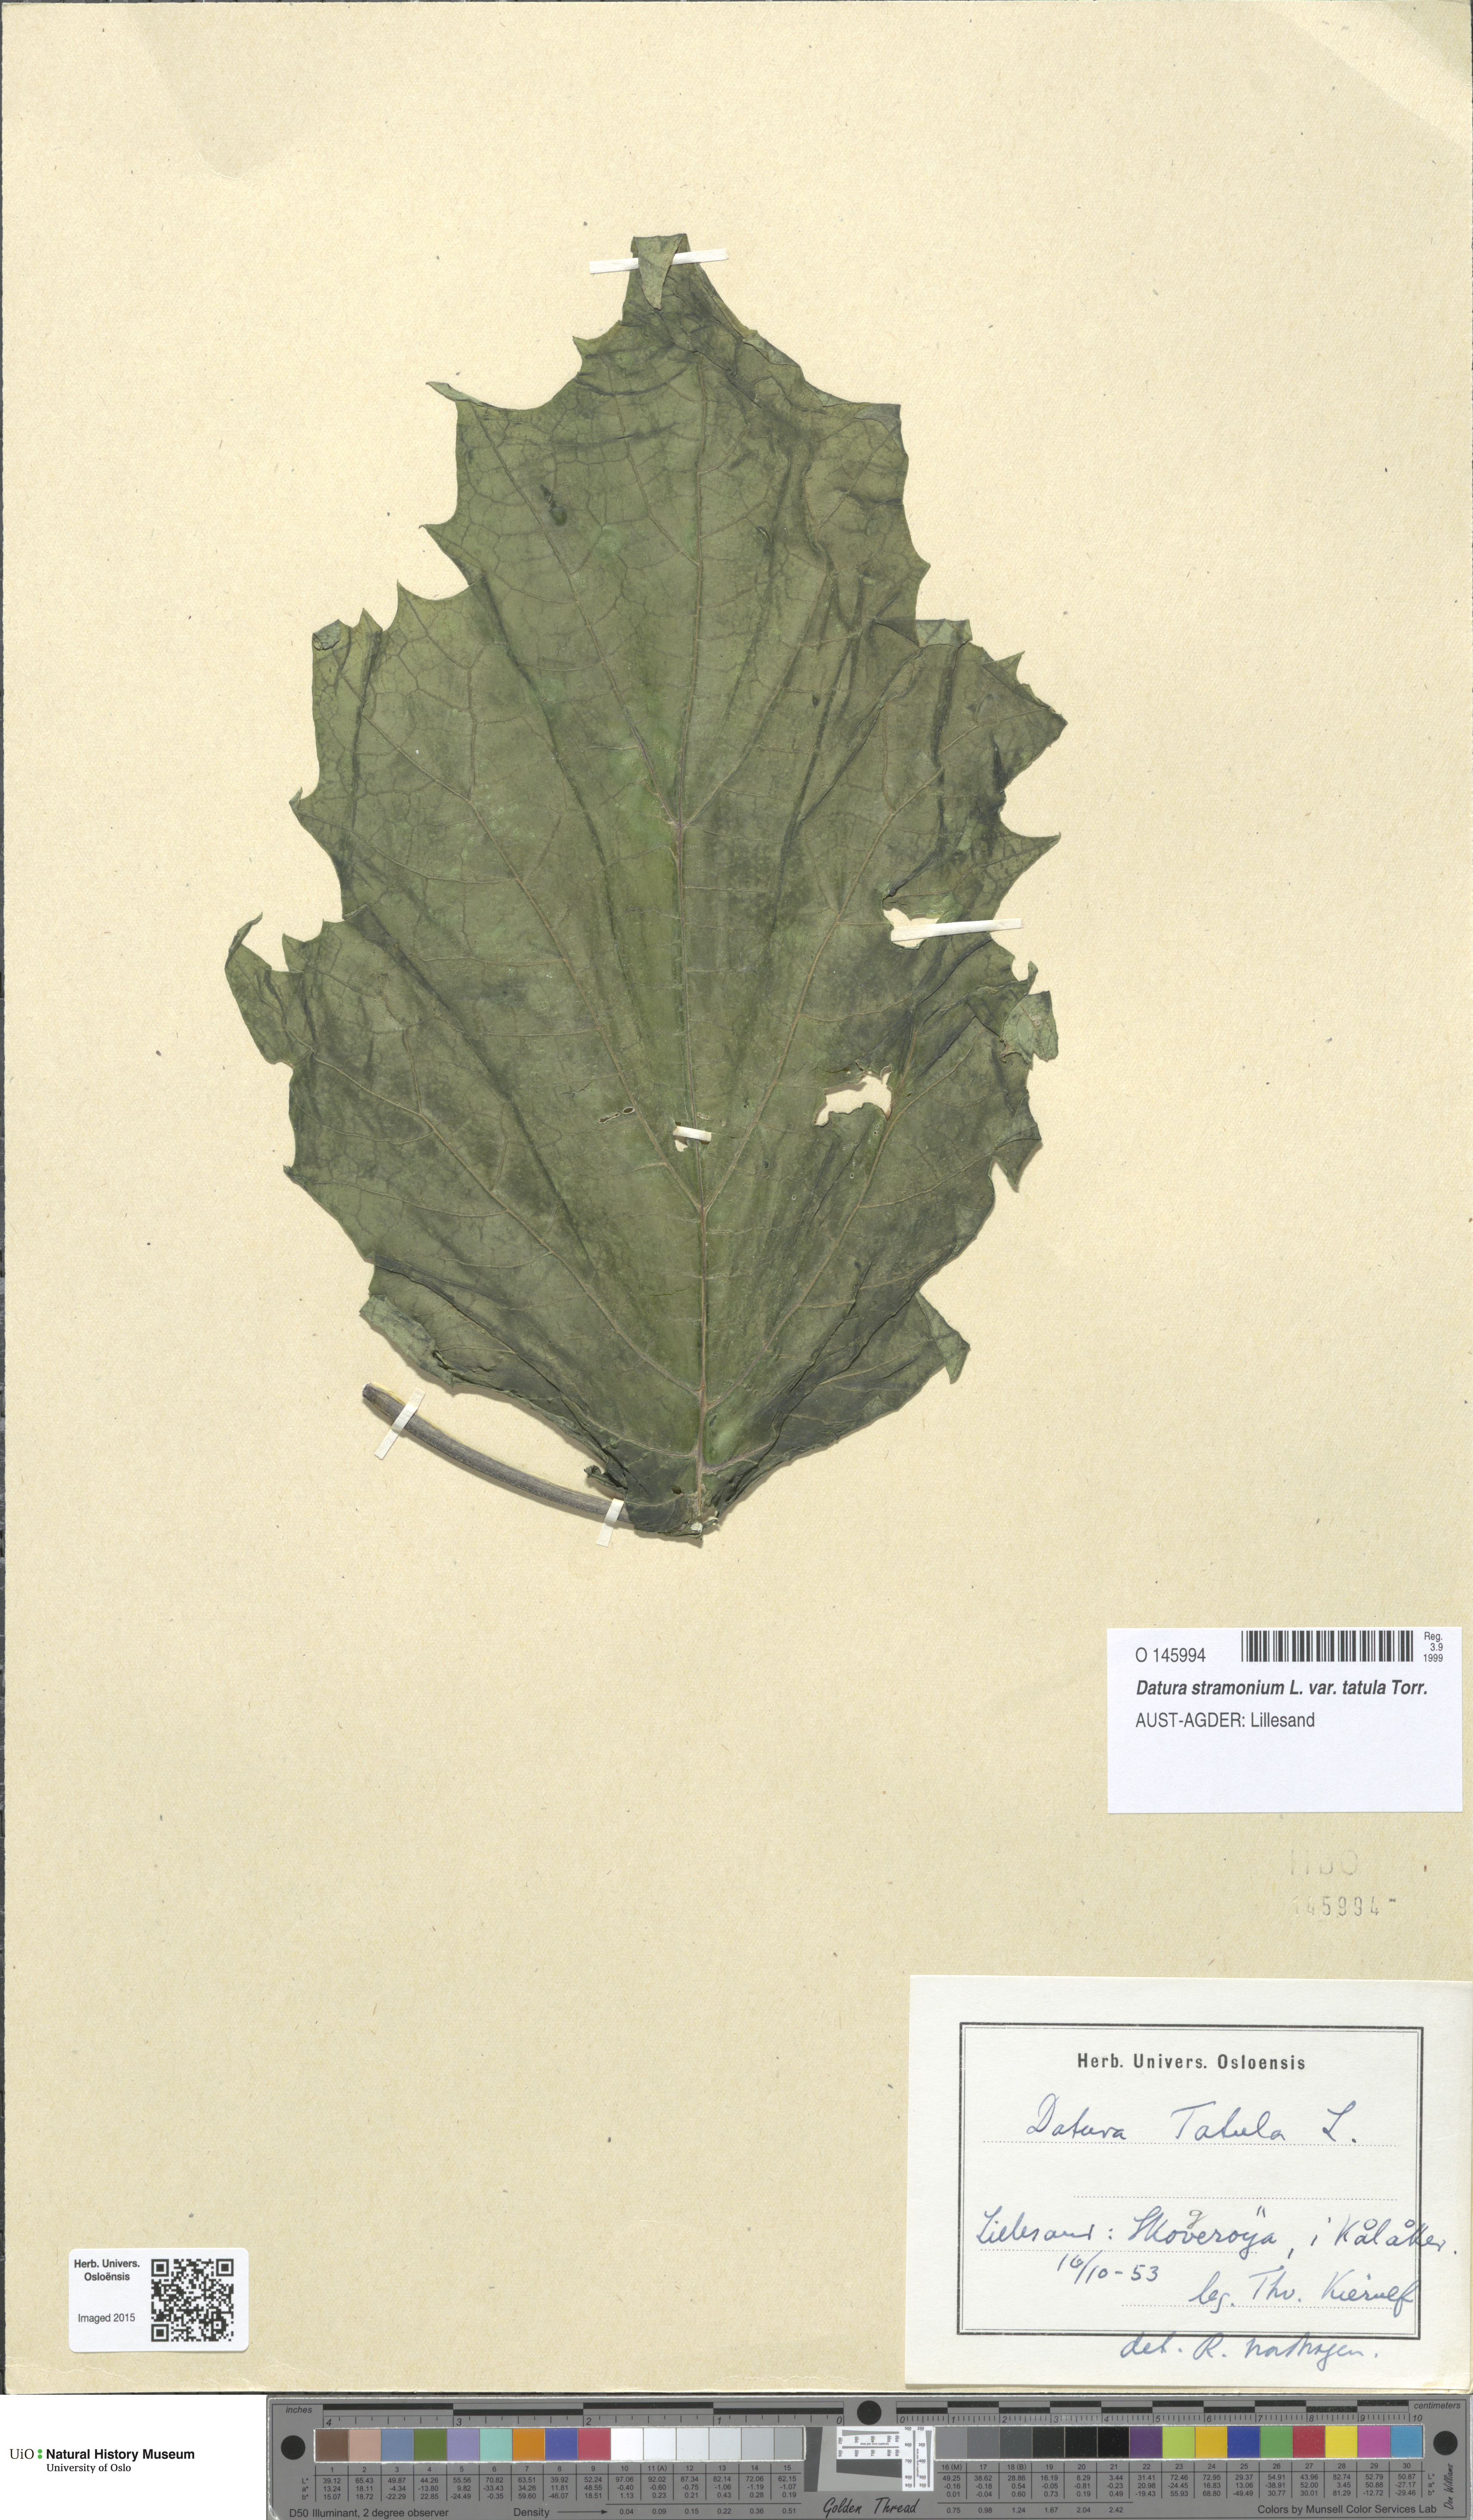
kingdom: Plantae
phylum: Tracheophyta
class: Magnoliopsida
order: Solanales
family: Solanaceae
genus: Datura
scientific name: Datura stramonium
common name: Thorn-apple
